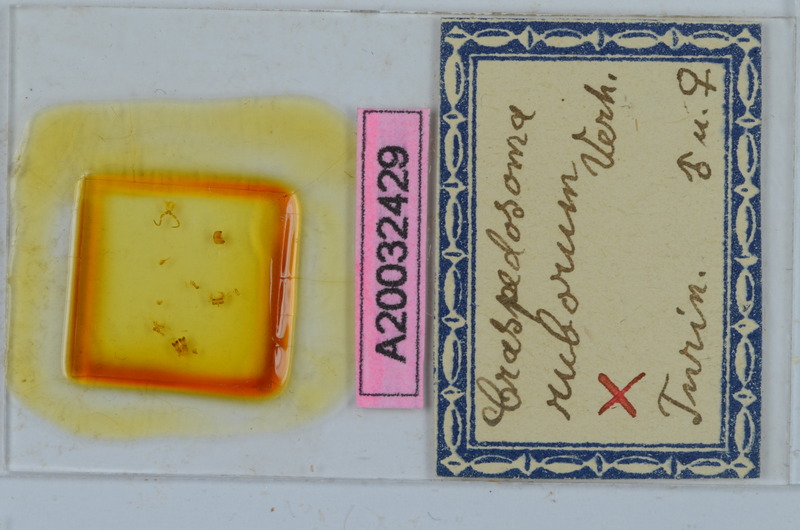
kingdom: Animalia
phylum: Arthropoda
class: Diplopoda
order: Chordeumatida
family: Craspedosomatidae
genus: Craspedosoma
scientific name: Craspedosoma ruborum
